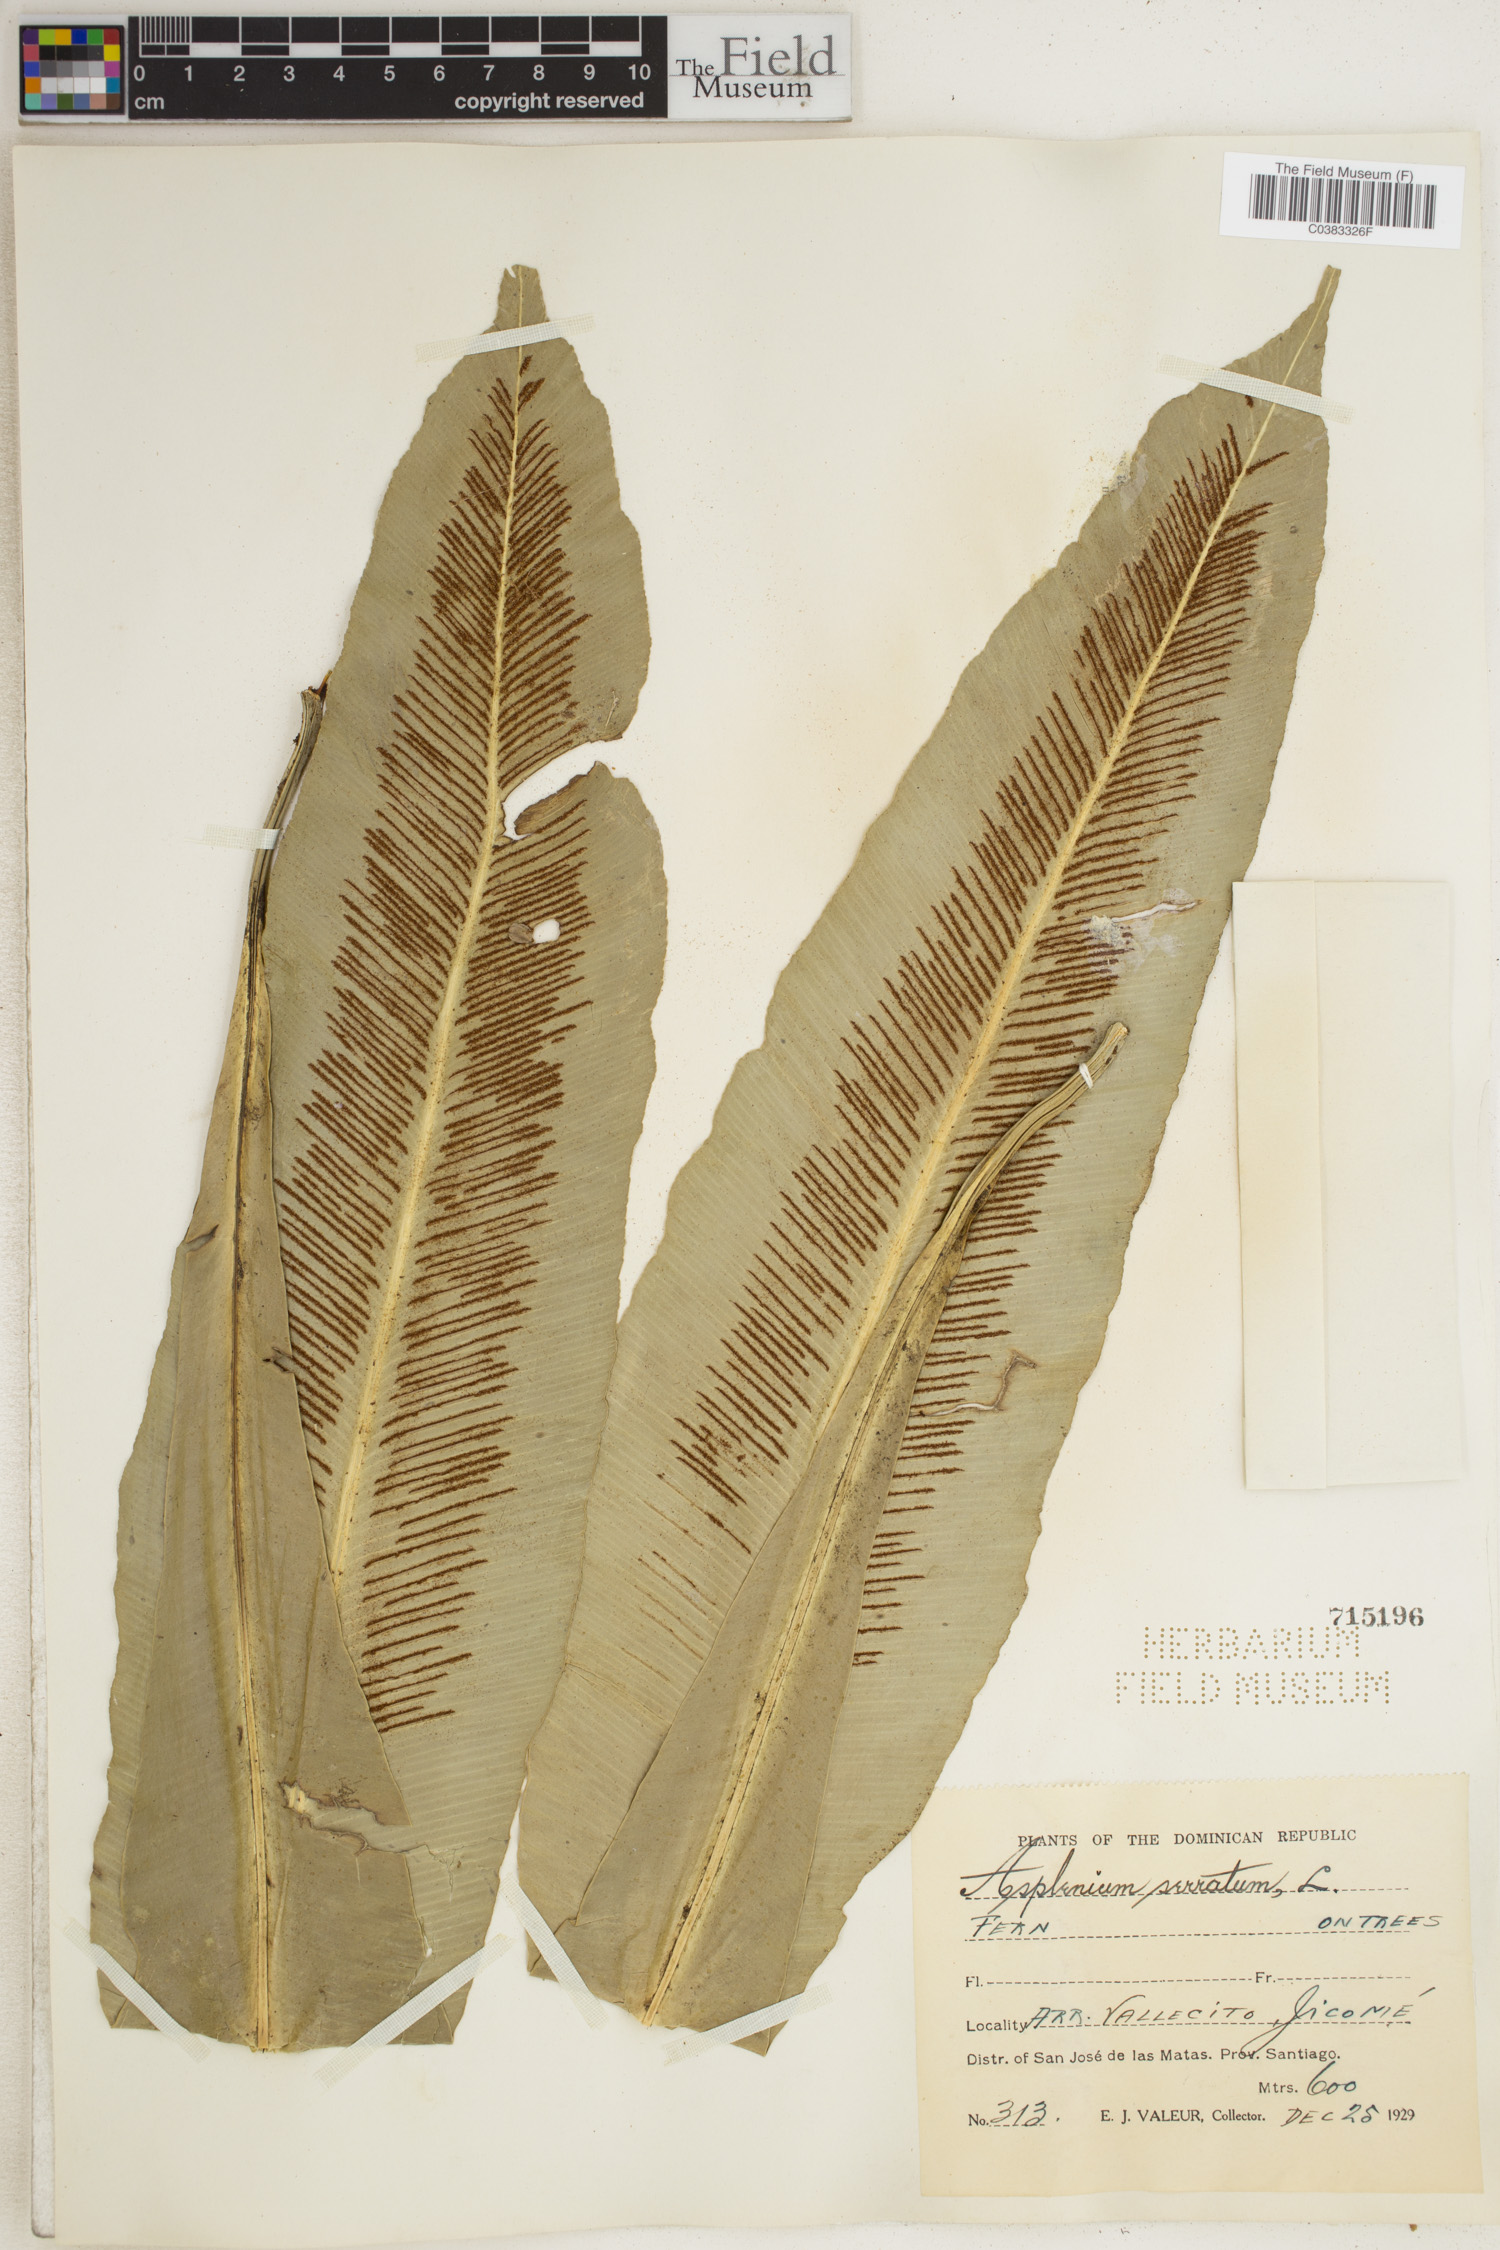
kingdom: Plantae
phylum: Tracheophyta
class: Polypodiopsida
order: Polypodiales
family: Aspleniaceae
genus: Asplenium
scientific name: Asplenium serratum
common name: Wild birdnest fern
